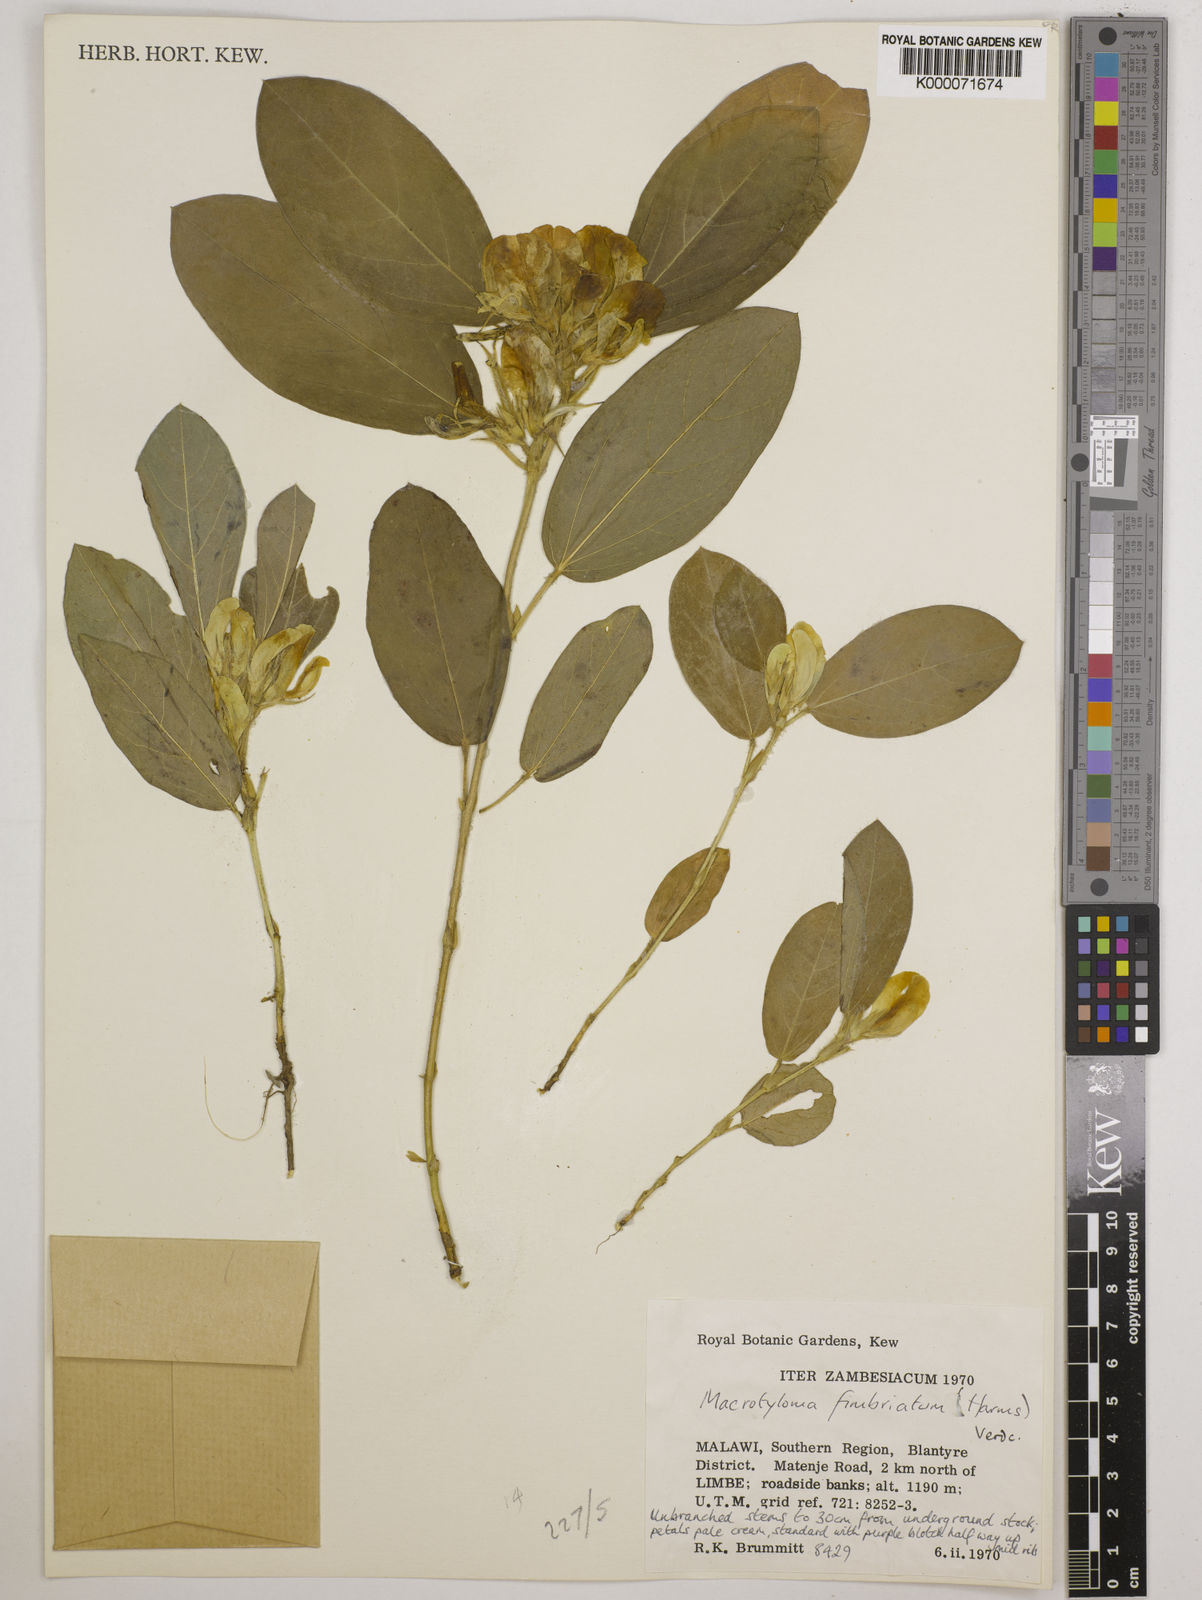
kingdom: Plantae
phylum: Tracheophyta
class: Magnoliopsida
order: Fabales
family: Fabaceae
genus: Macrotyloma
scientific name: Macrotyloma fimbriatum
